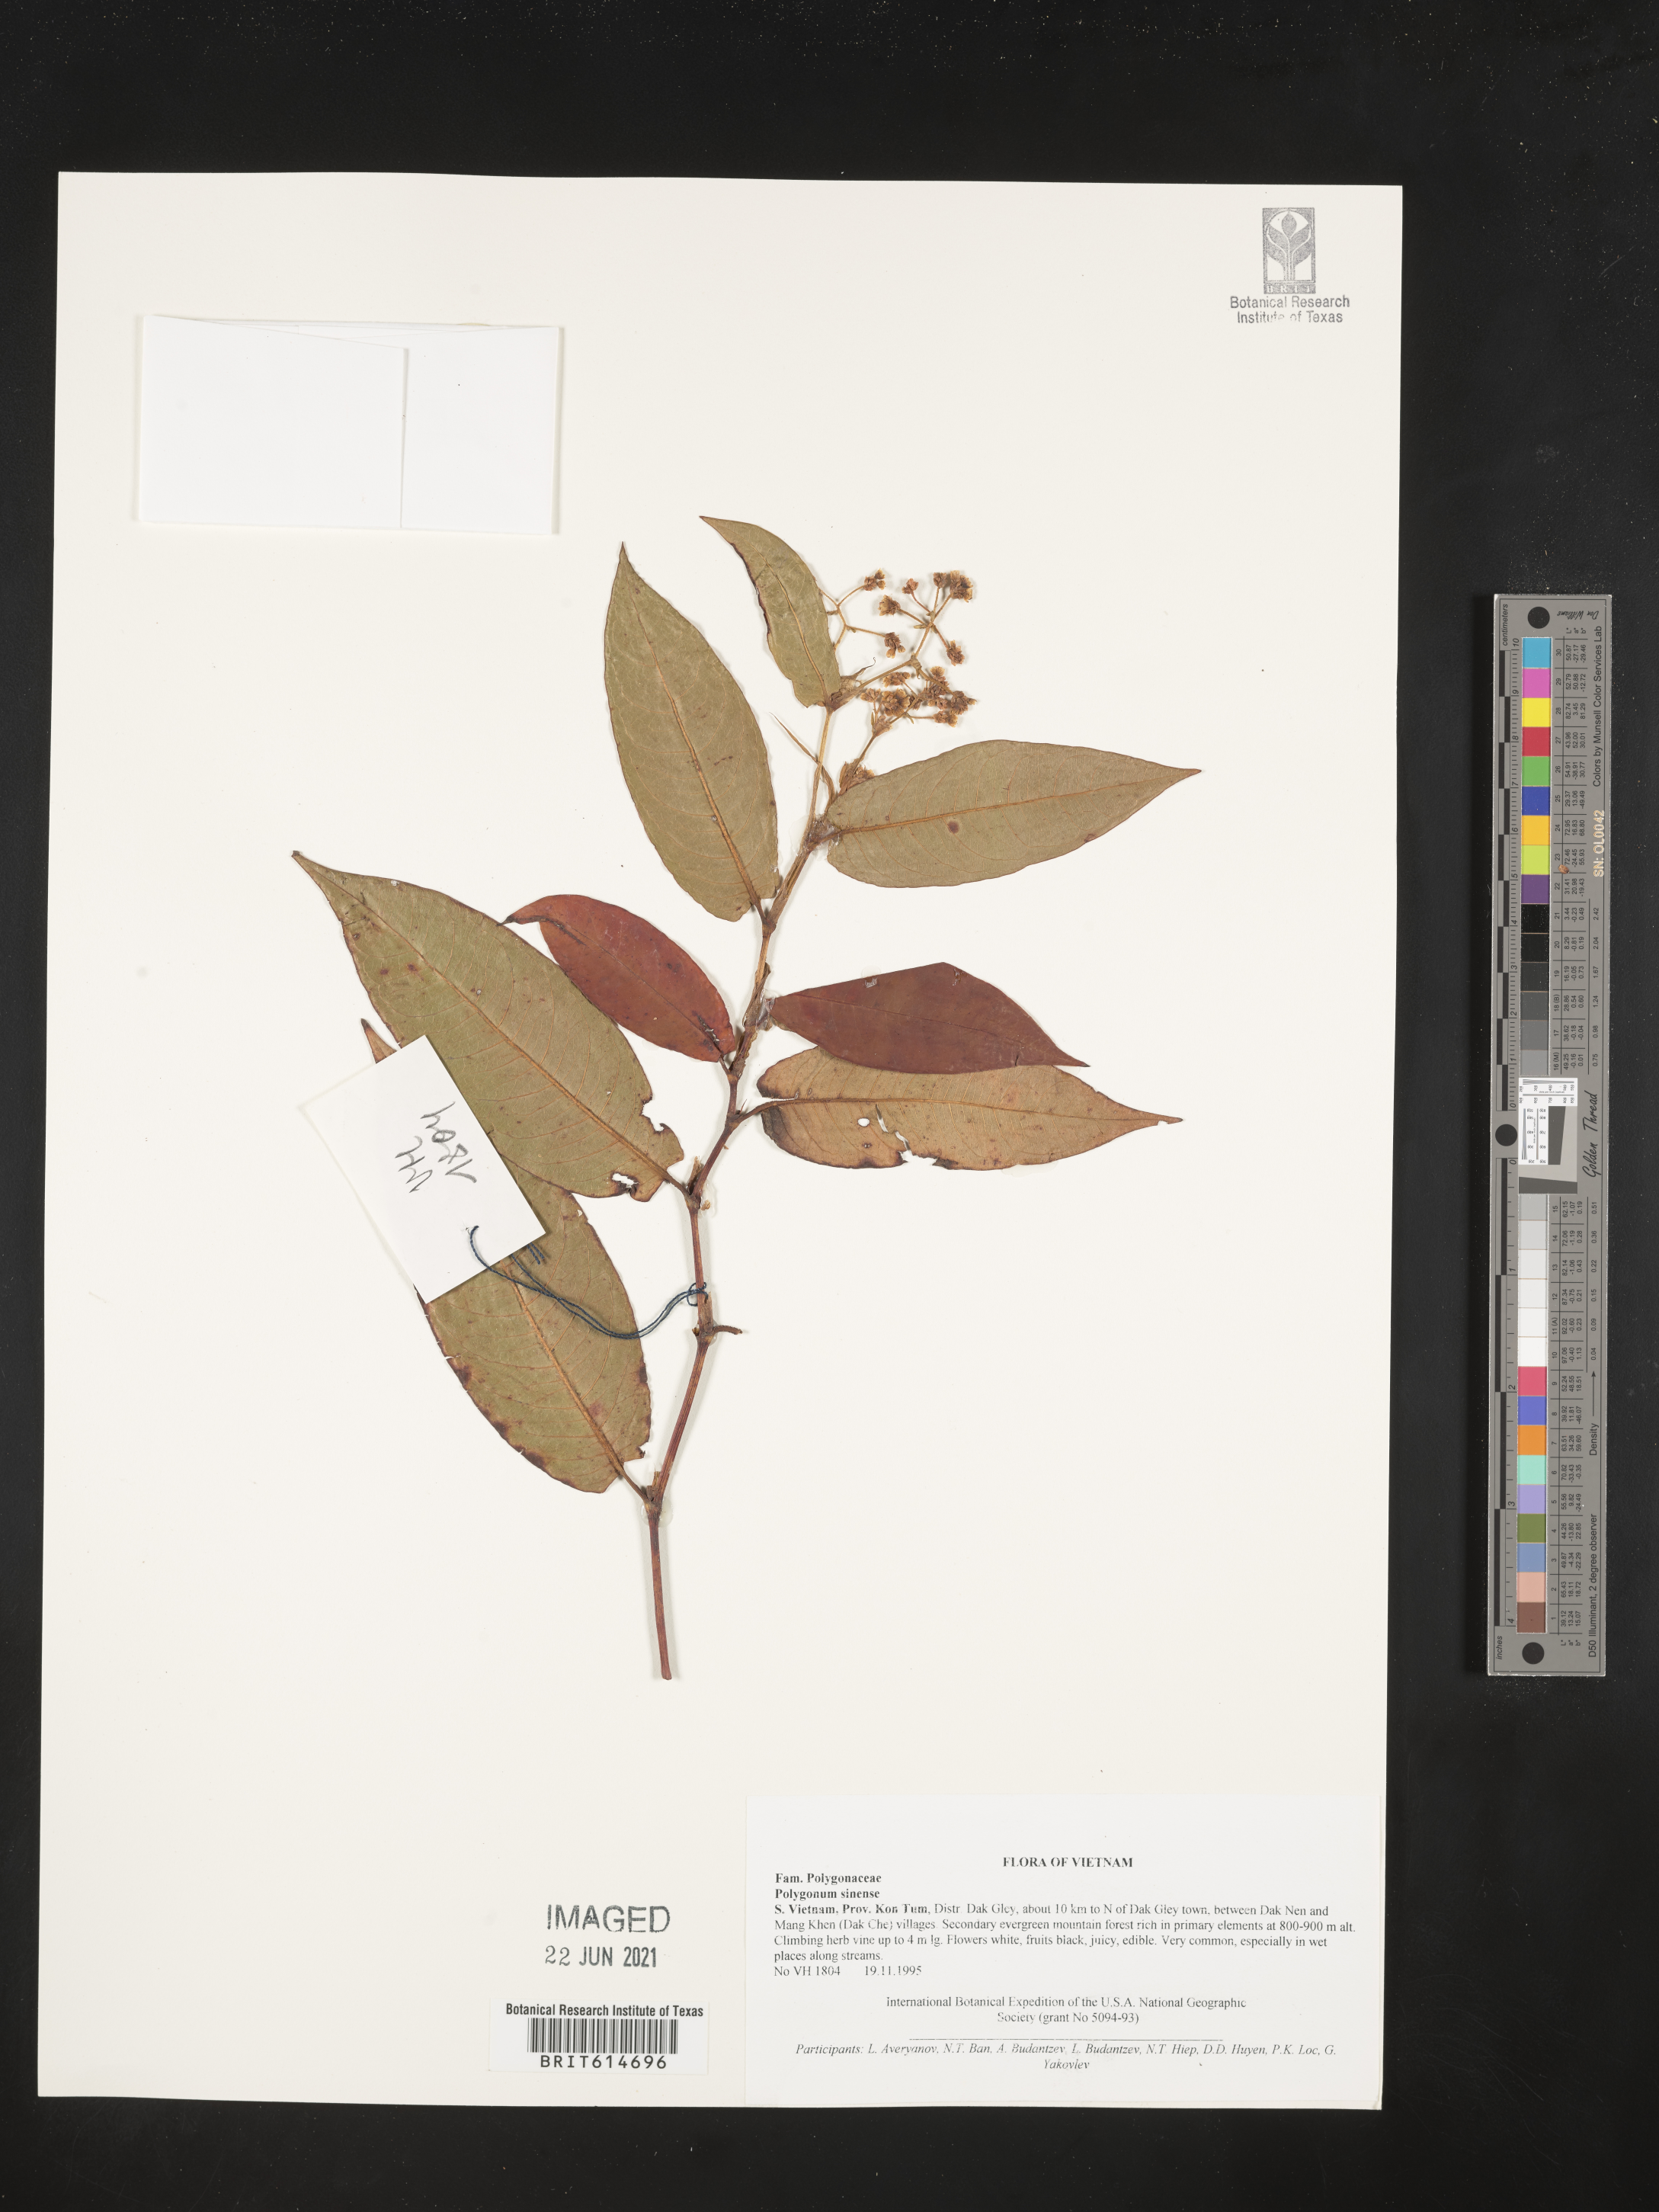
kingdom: Plantae
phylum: Tracheophyta
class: Magnoliopsida
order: Caryophyllales
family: Polygonaceae
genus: Persicaria
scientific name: Persicaria chinensis
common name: Chinese knotweed
